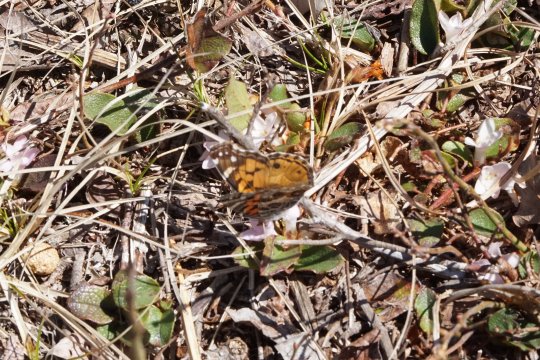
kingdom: Animalia
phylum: Arthropoda
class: Insecta
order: Lepidoptera
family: Nymphalidae
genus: Vanessa
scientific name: Vanessa virginiensis
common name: American Lady
